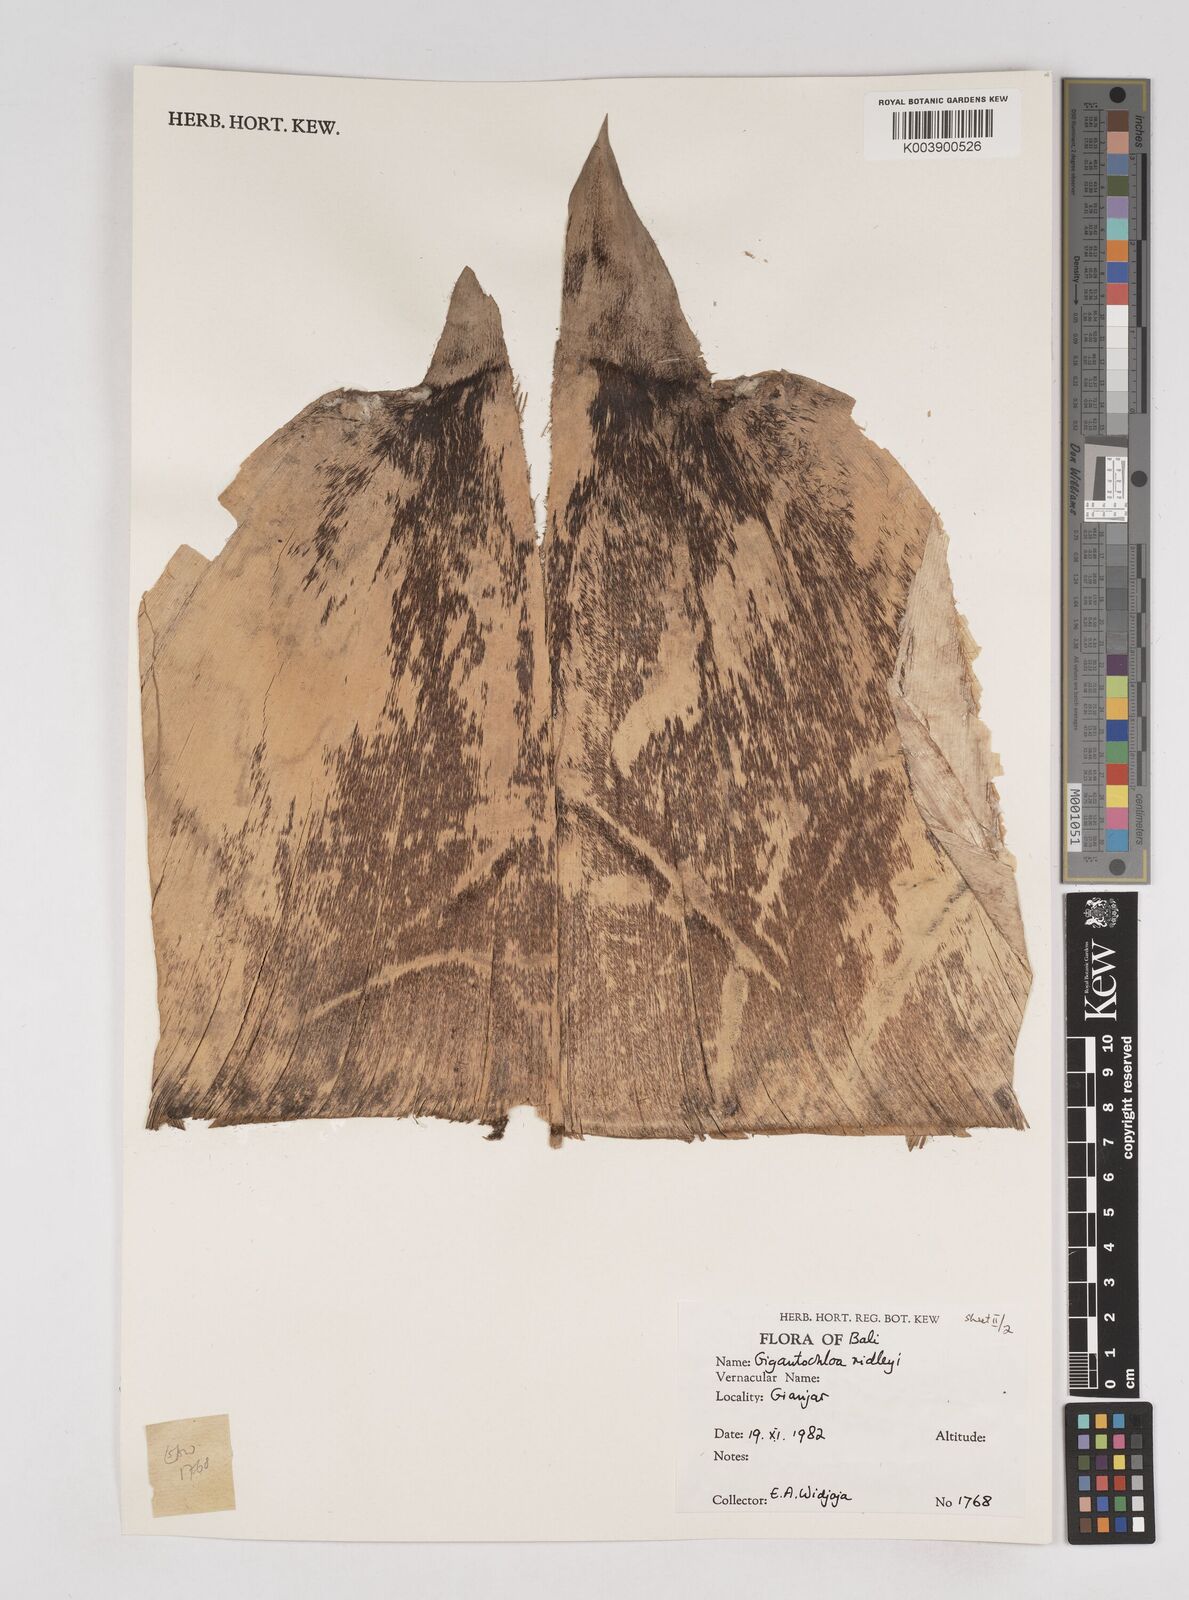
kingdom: Plantae
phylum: Tracheophyta
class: Liliopsida
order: Poales
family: Poaceae
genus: Gigantochloa
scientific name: Gigantochloa ridleyi
